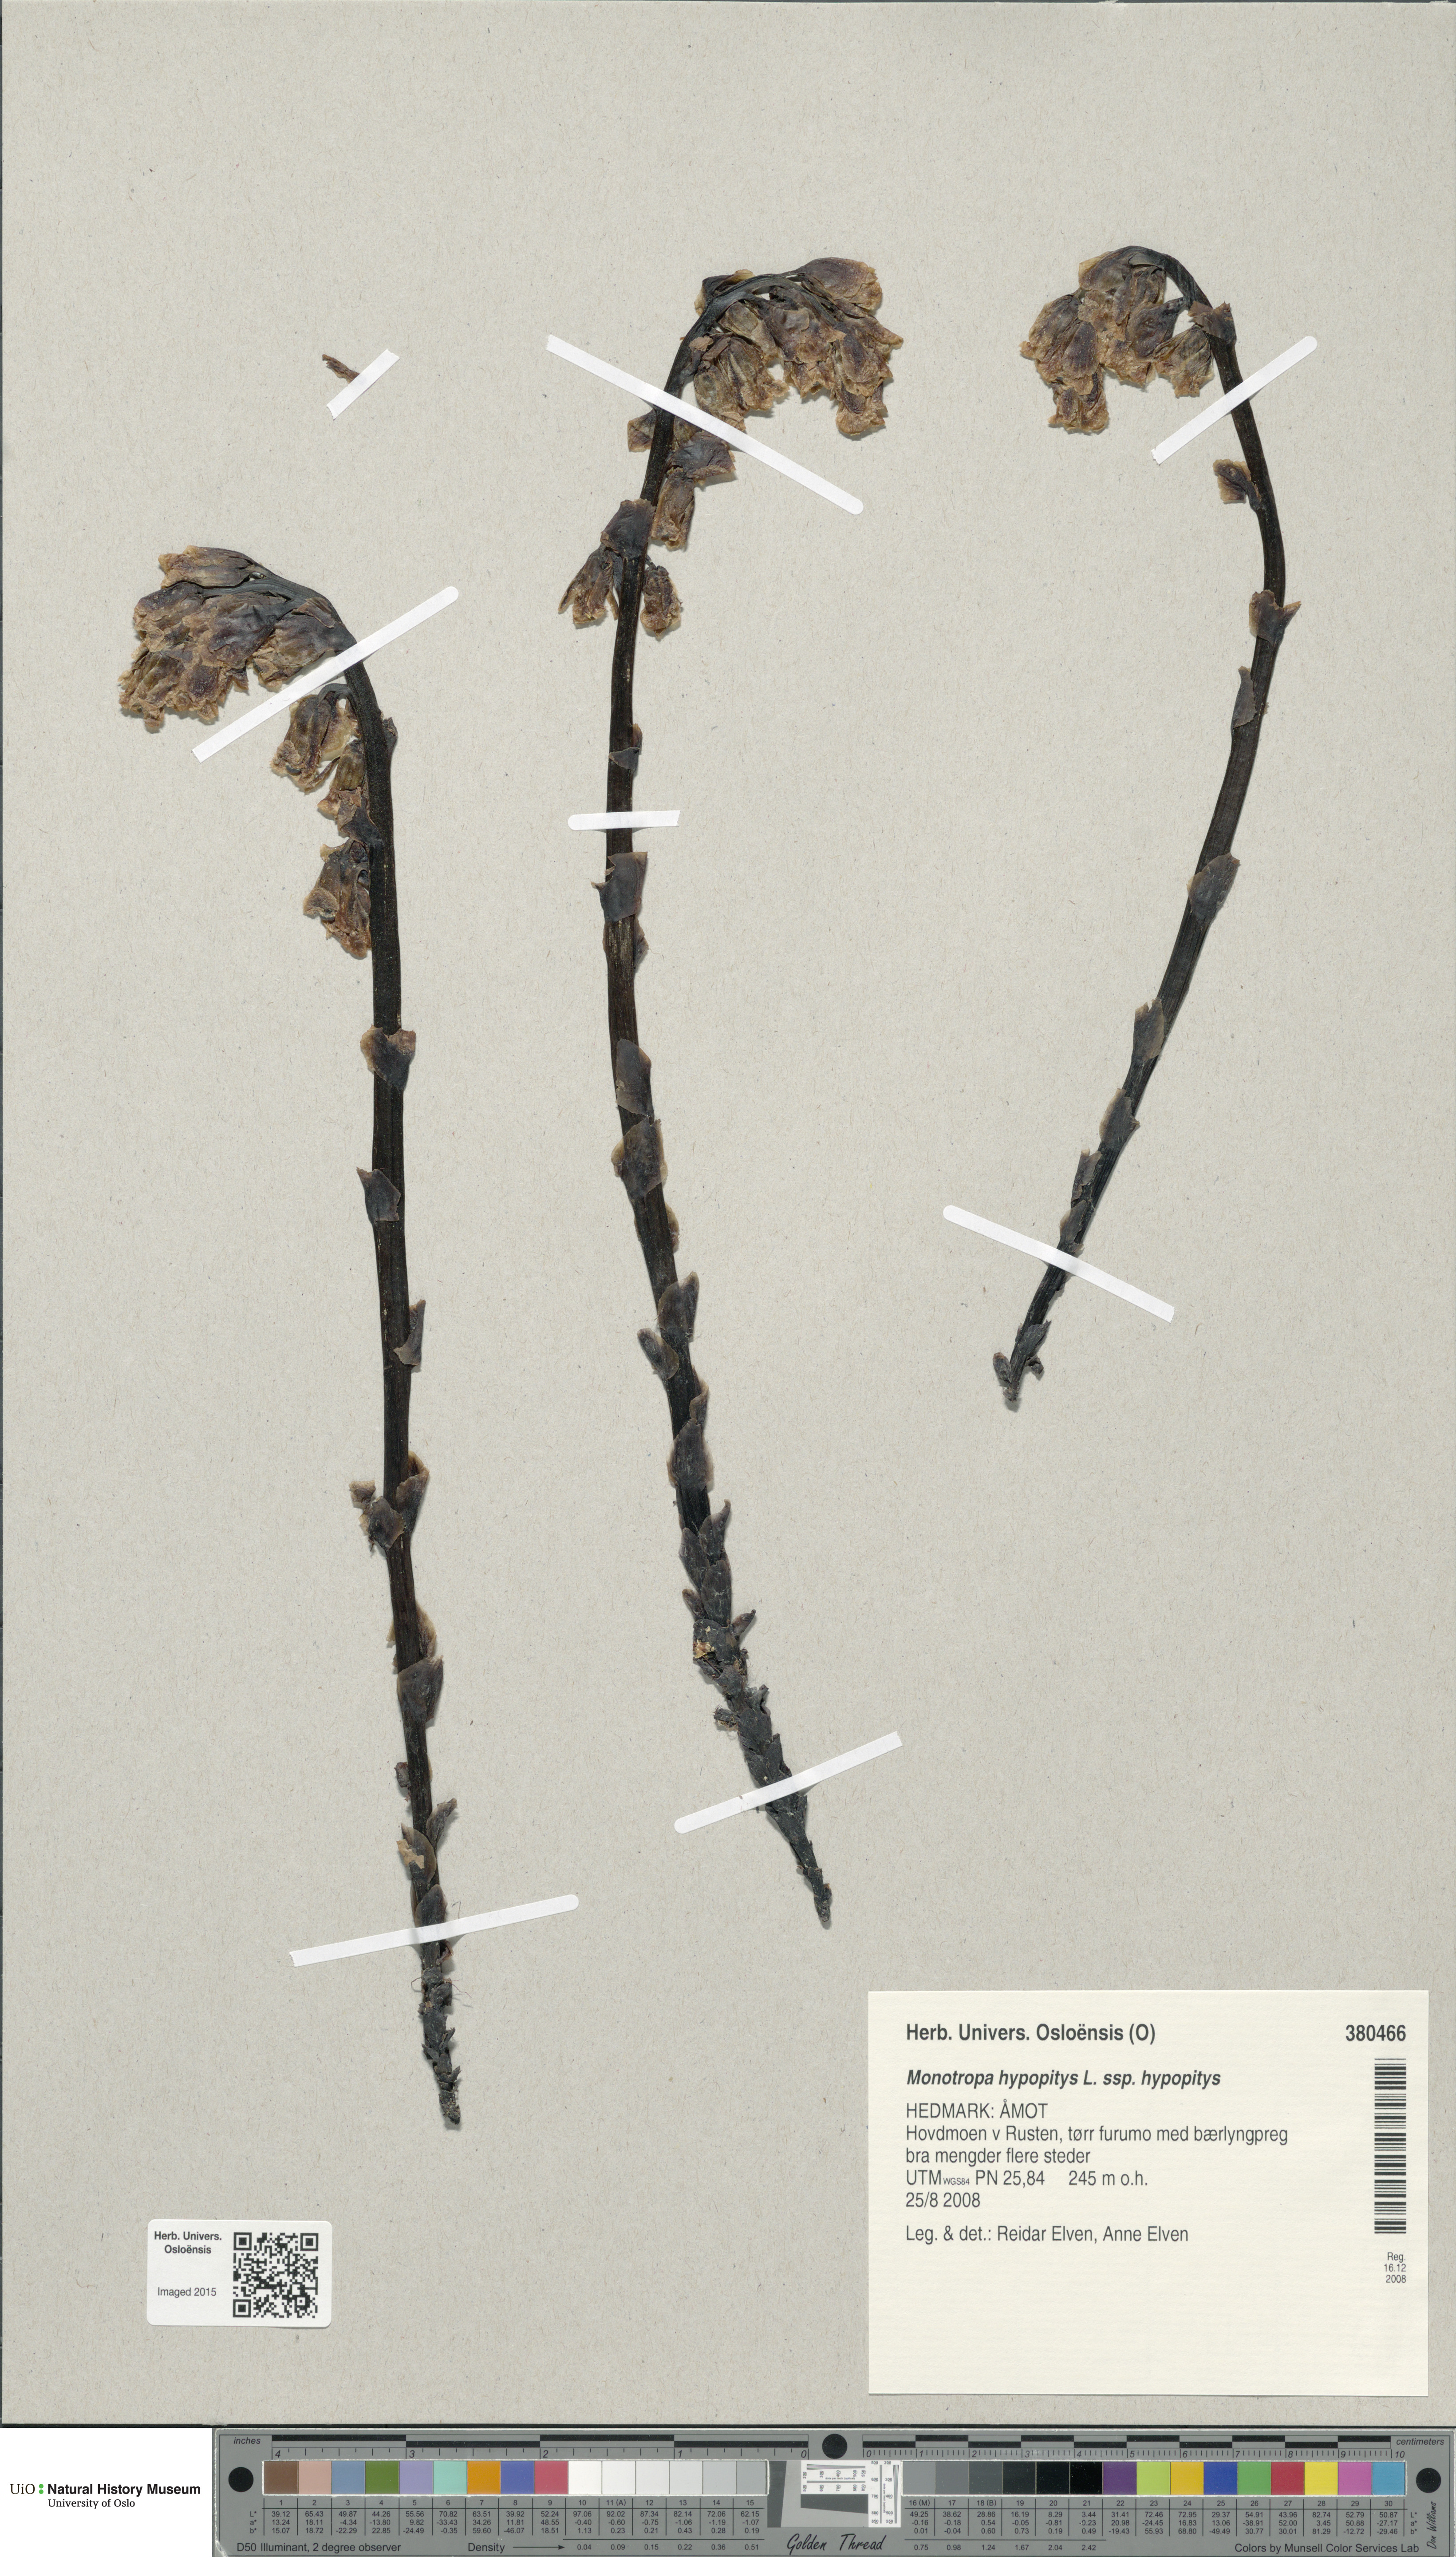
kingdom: Plantae
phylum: Tracheophyta
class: Magnoliopsida
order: Ericales
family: Ericaceae
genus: Hypopitys
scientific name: Hypopitys monotropa
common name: Yellow bird's-nest
